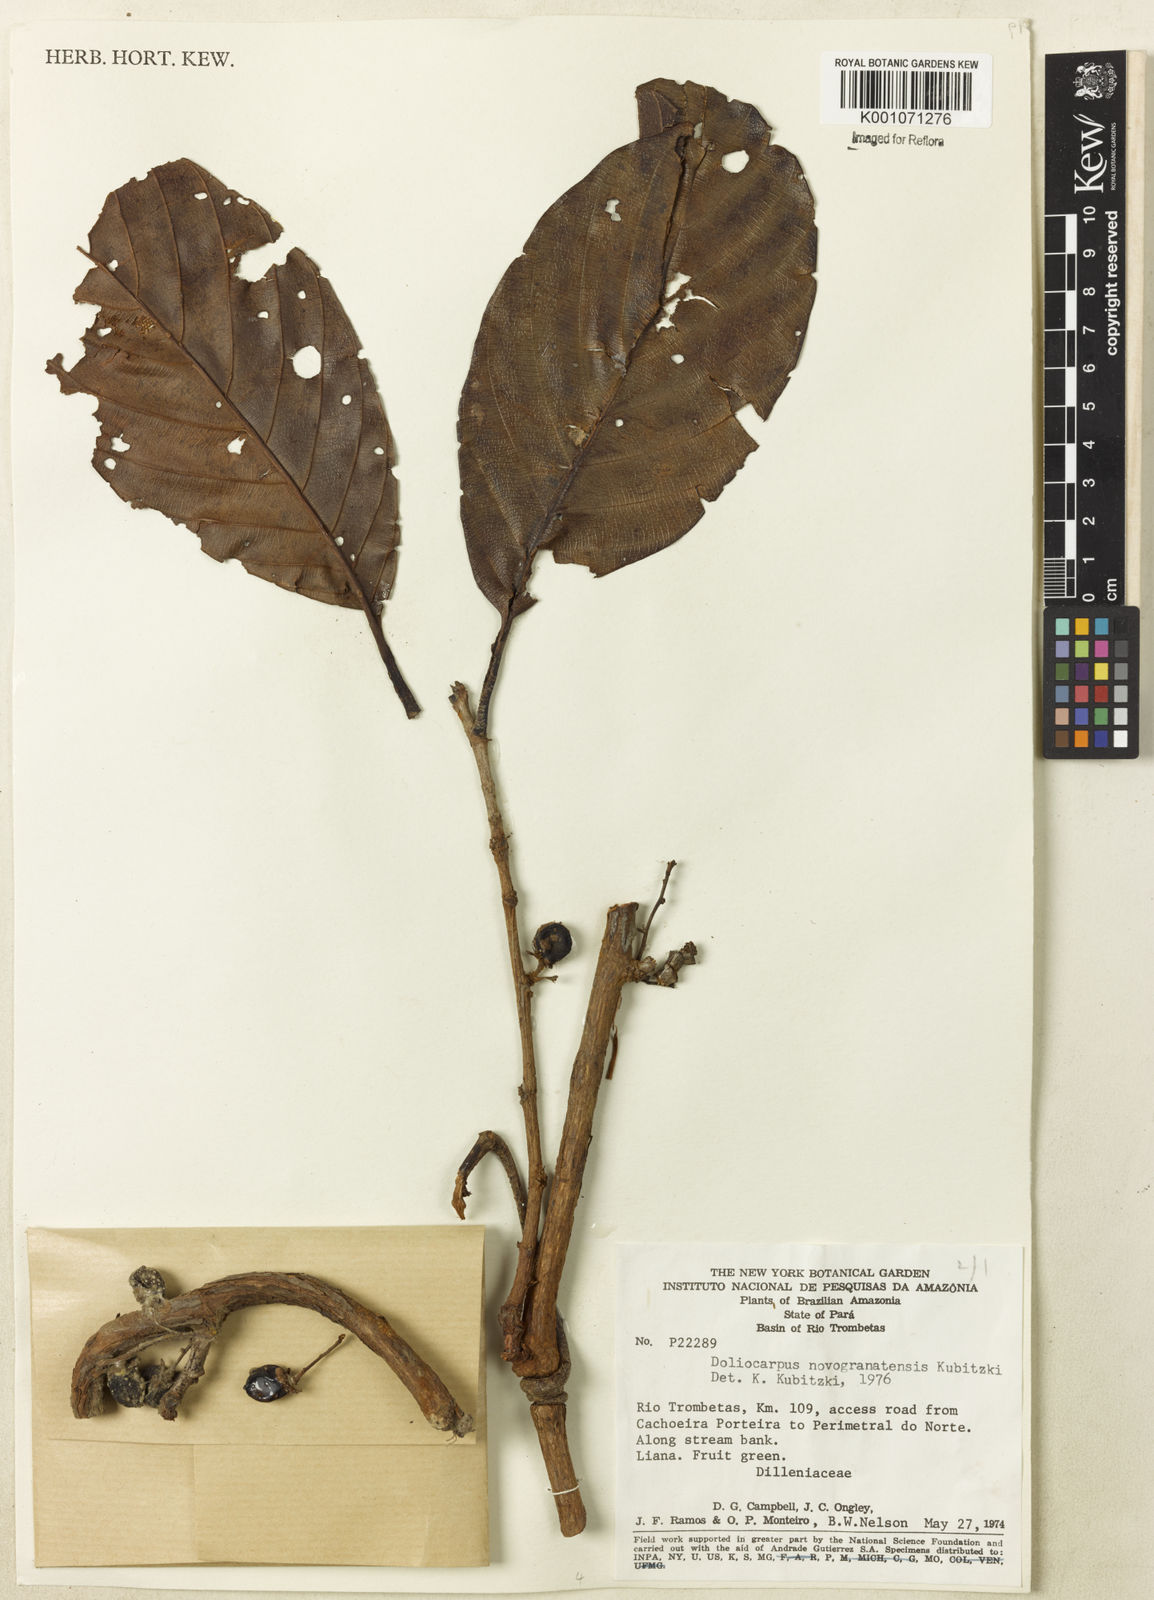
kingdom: Plantae
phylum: Tracheophyta
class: Magnoliopsida
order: Dilleniales
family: Dilleniaceae
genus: Doliocarpus
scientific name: Doliocarpus novogranatensis
